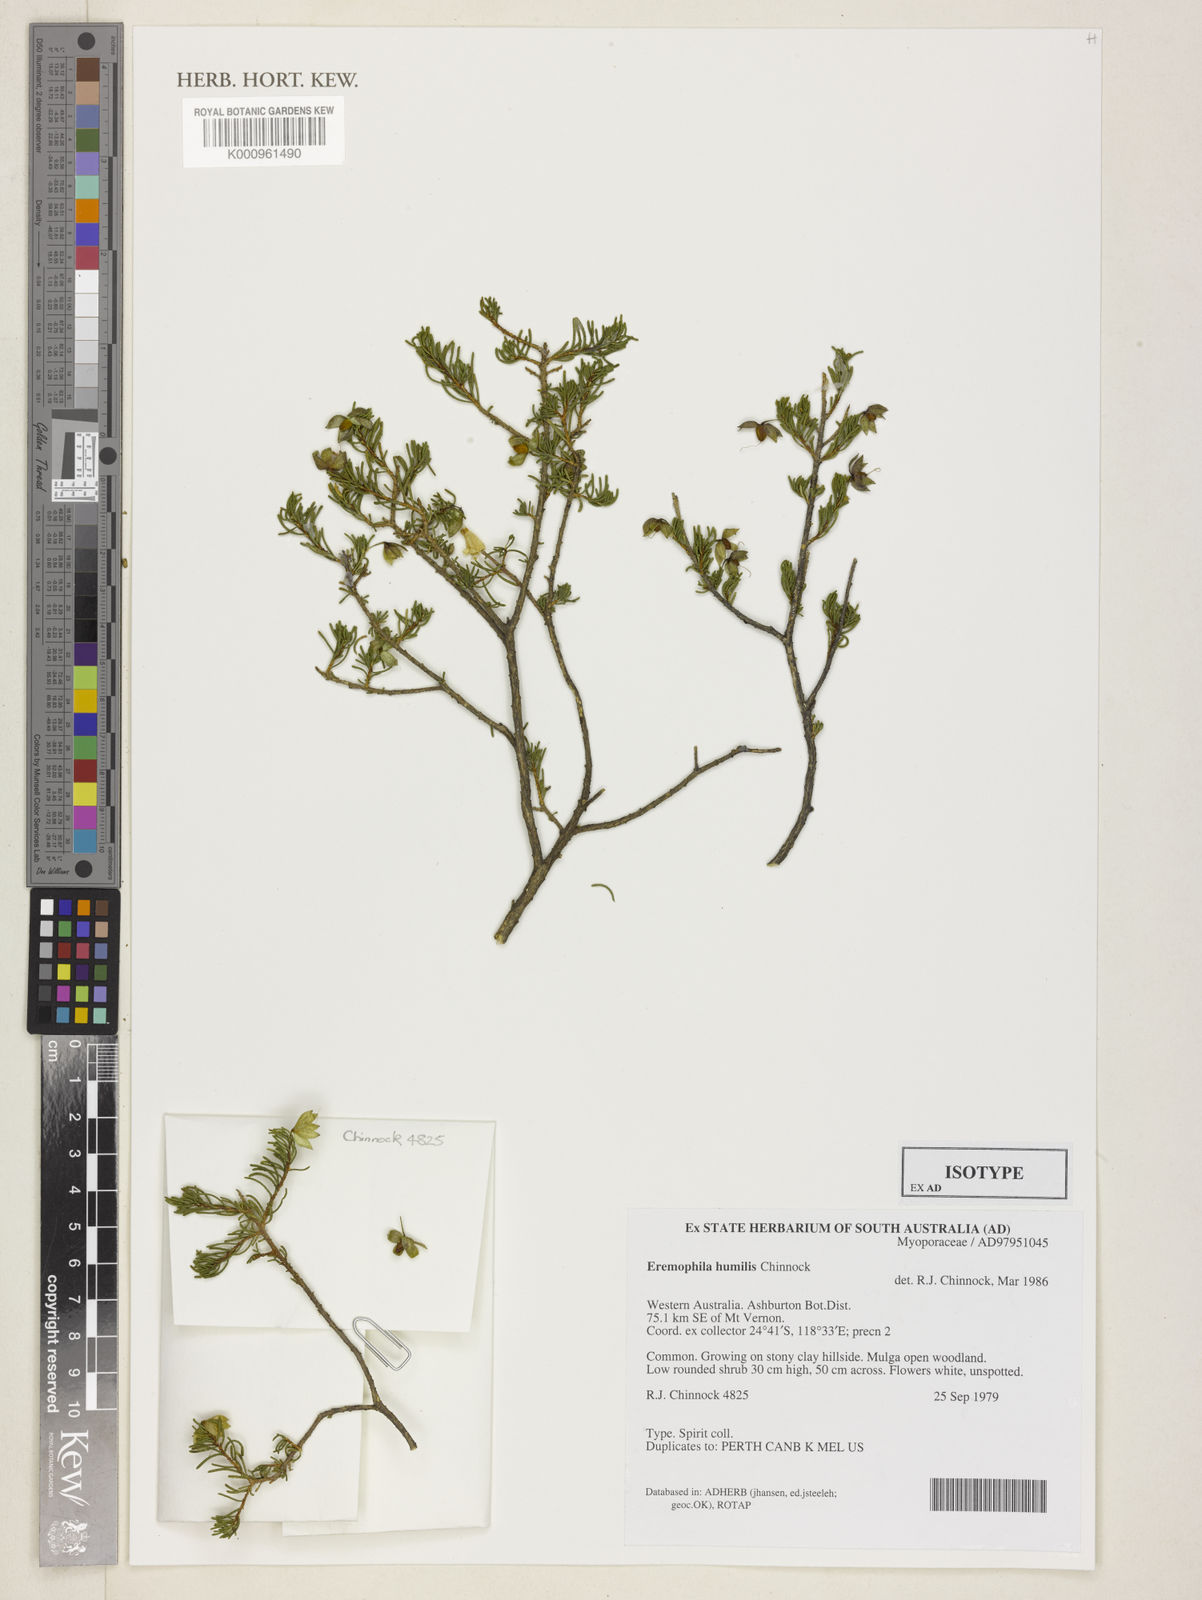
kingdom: Plantae
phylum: Tracheophyta
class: Magnoliopsida
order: Lamiales
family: Scrophulariaceae
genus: Eremophila
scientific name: Eremophila humilis
